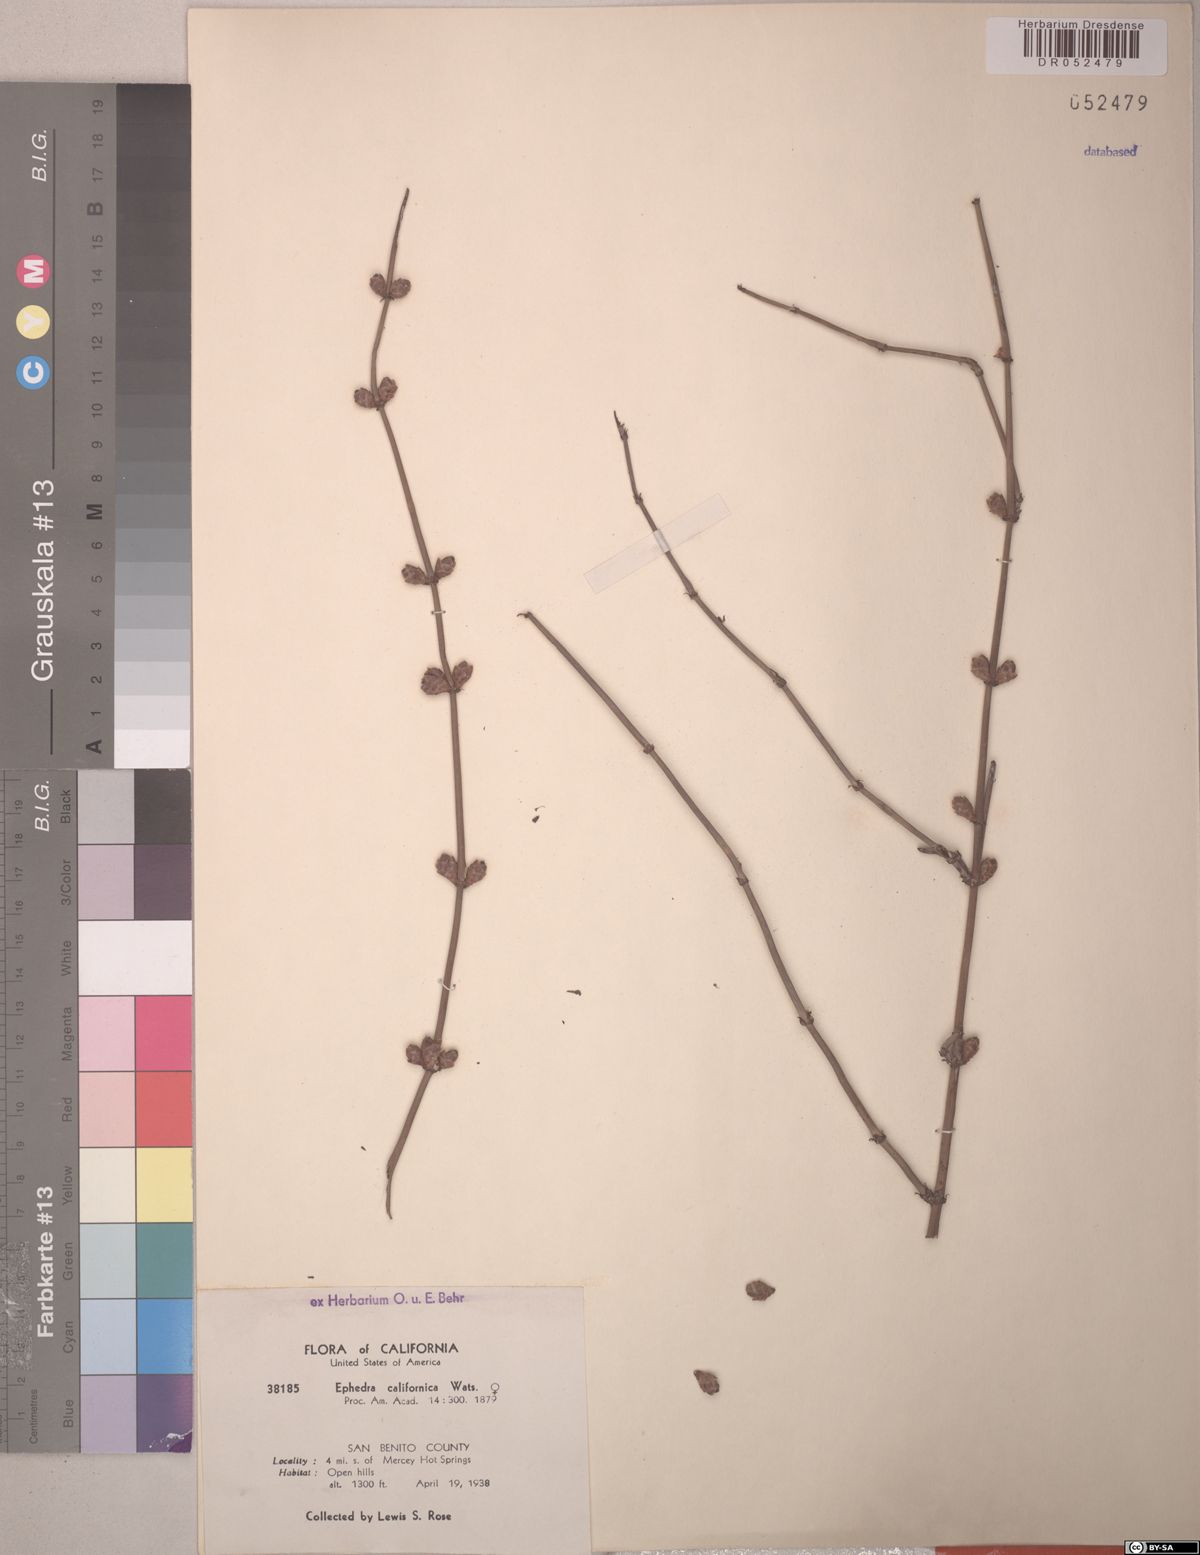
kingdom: Plantae
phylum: Tracheophyta
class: Gnetopsida
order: Ephedrales
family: Ephedraceae
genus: Ephedra
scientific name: Ephedra californica
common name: California ephedra
